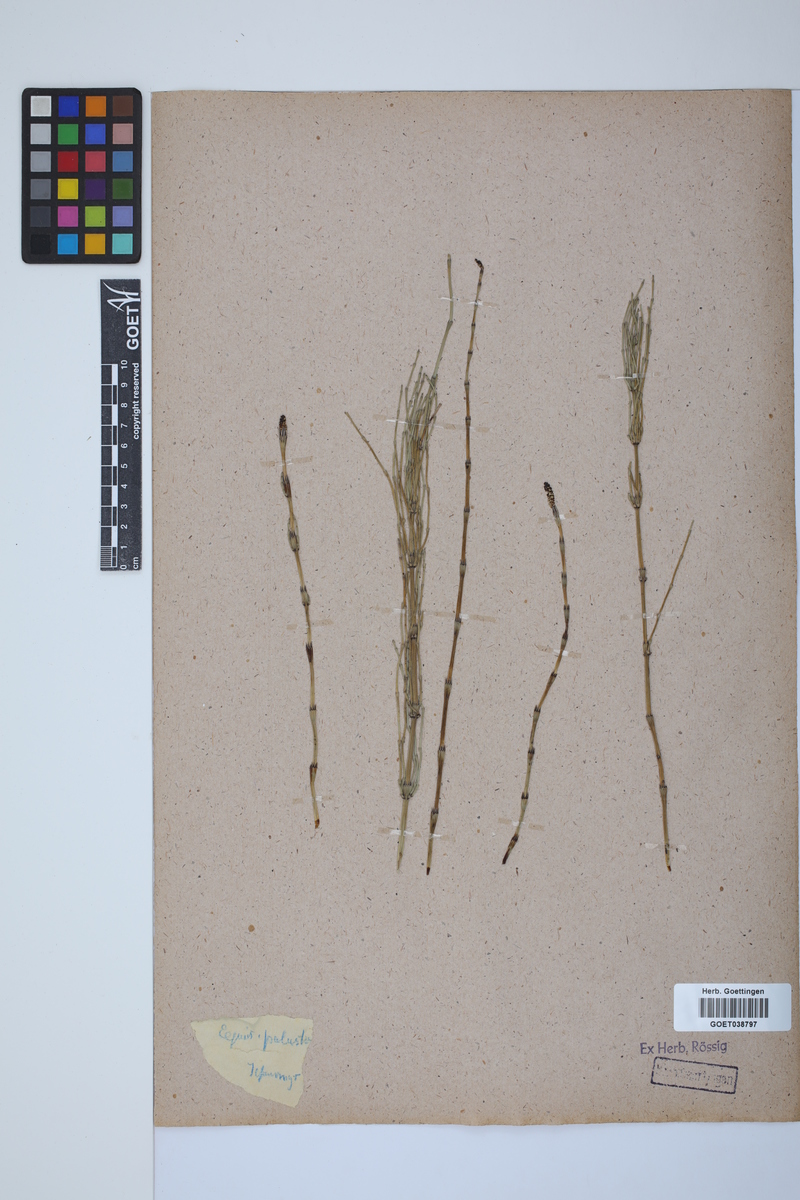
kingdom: Plantae
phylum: Tracheophyta
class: Polypodiopsida
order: Equisetales
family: Equisetaceae
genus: Equisetum
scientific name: Equisetum palustre
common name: Marsh horsetail
